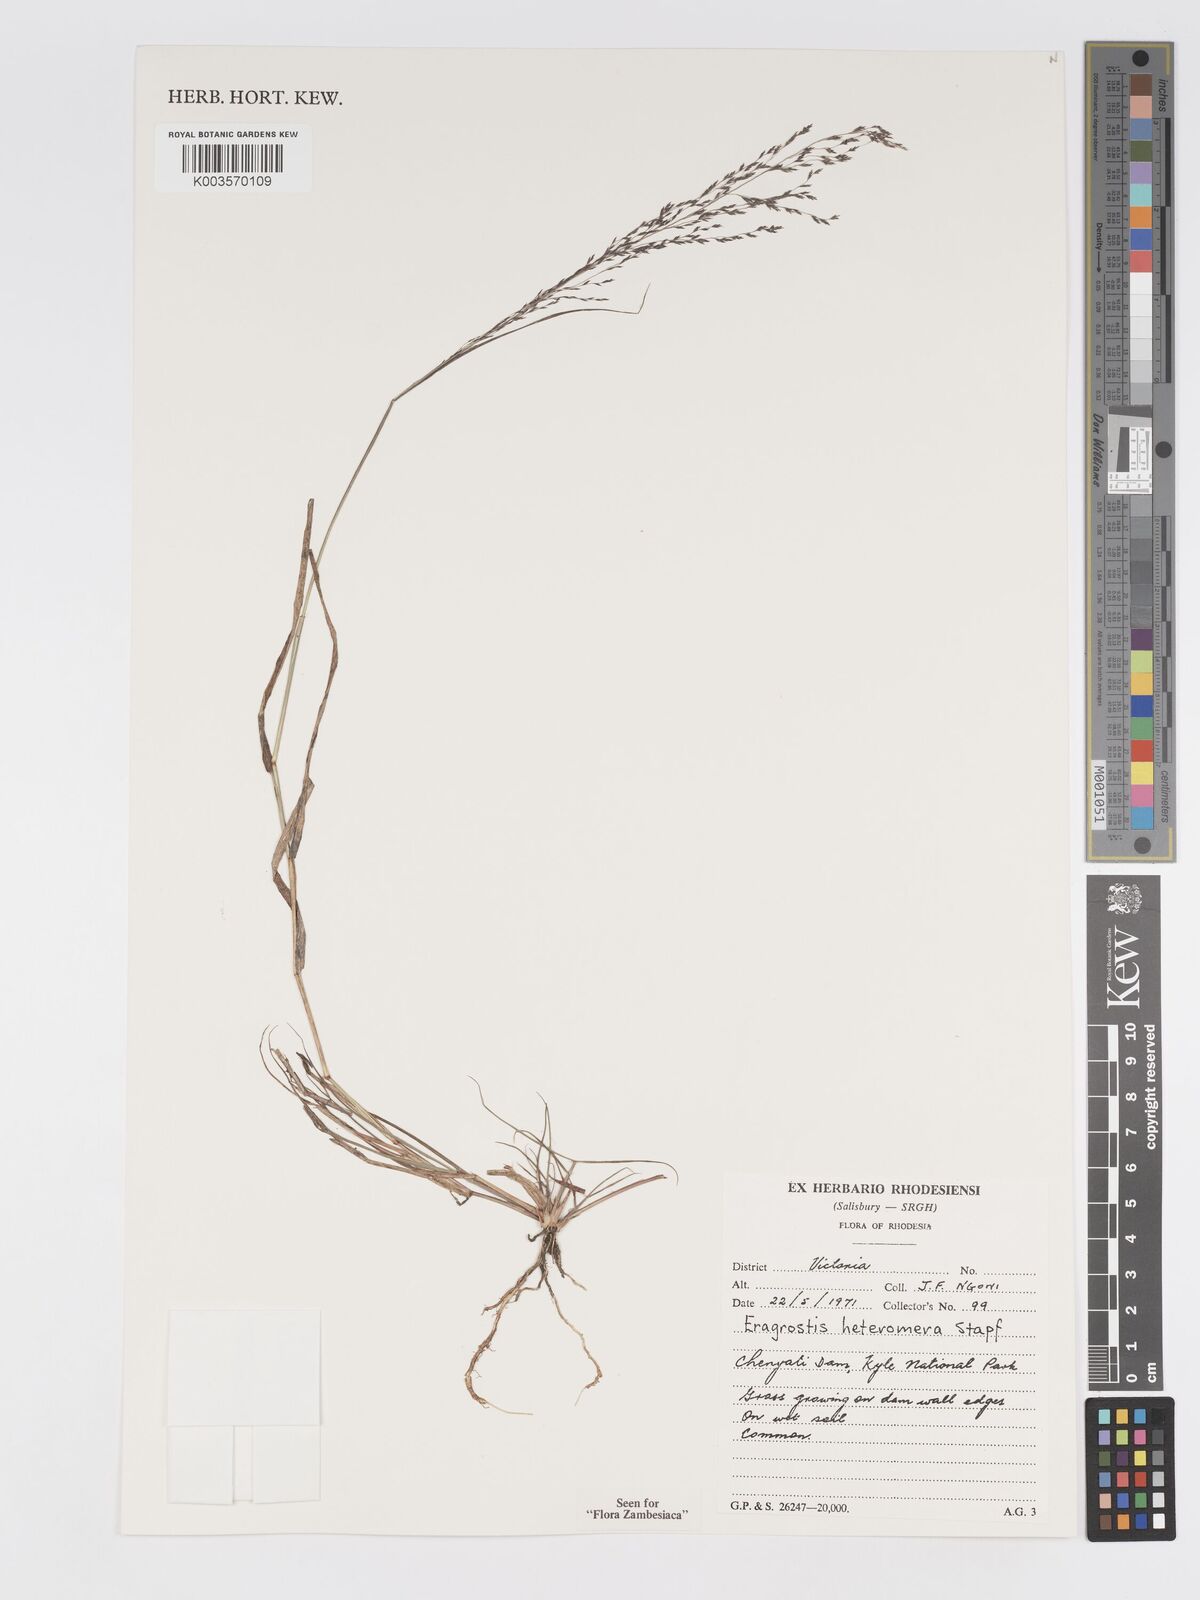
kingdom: Plantae
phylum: Tracheophyta
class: Liliopsida
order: Poales
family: Poaceae
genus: Eragrostis
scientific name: Eragrostis heteromera
